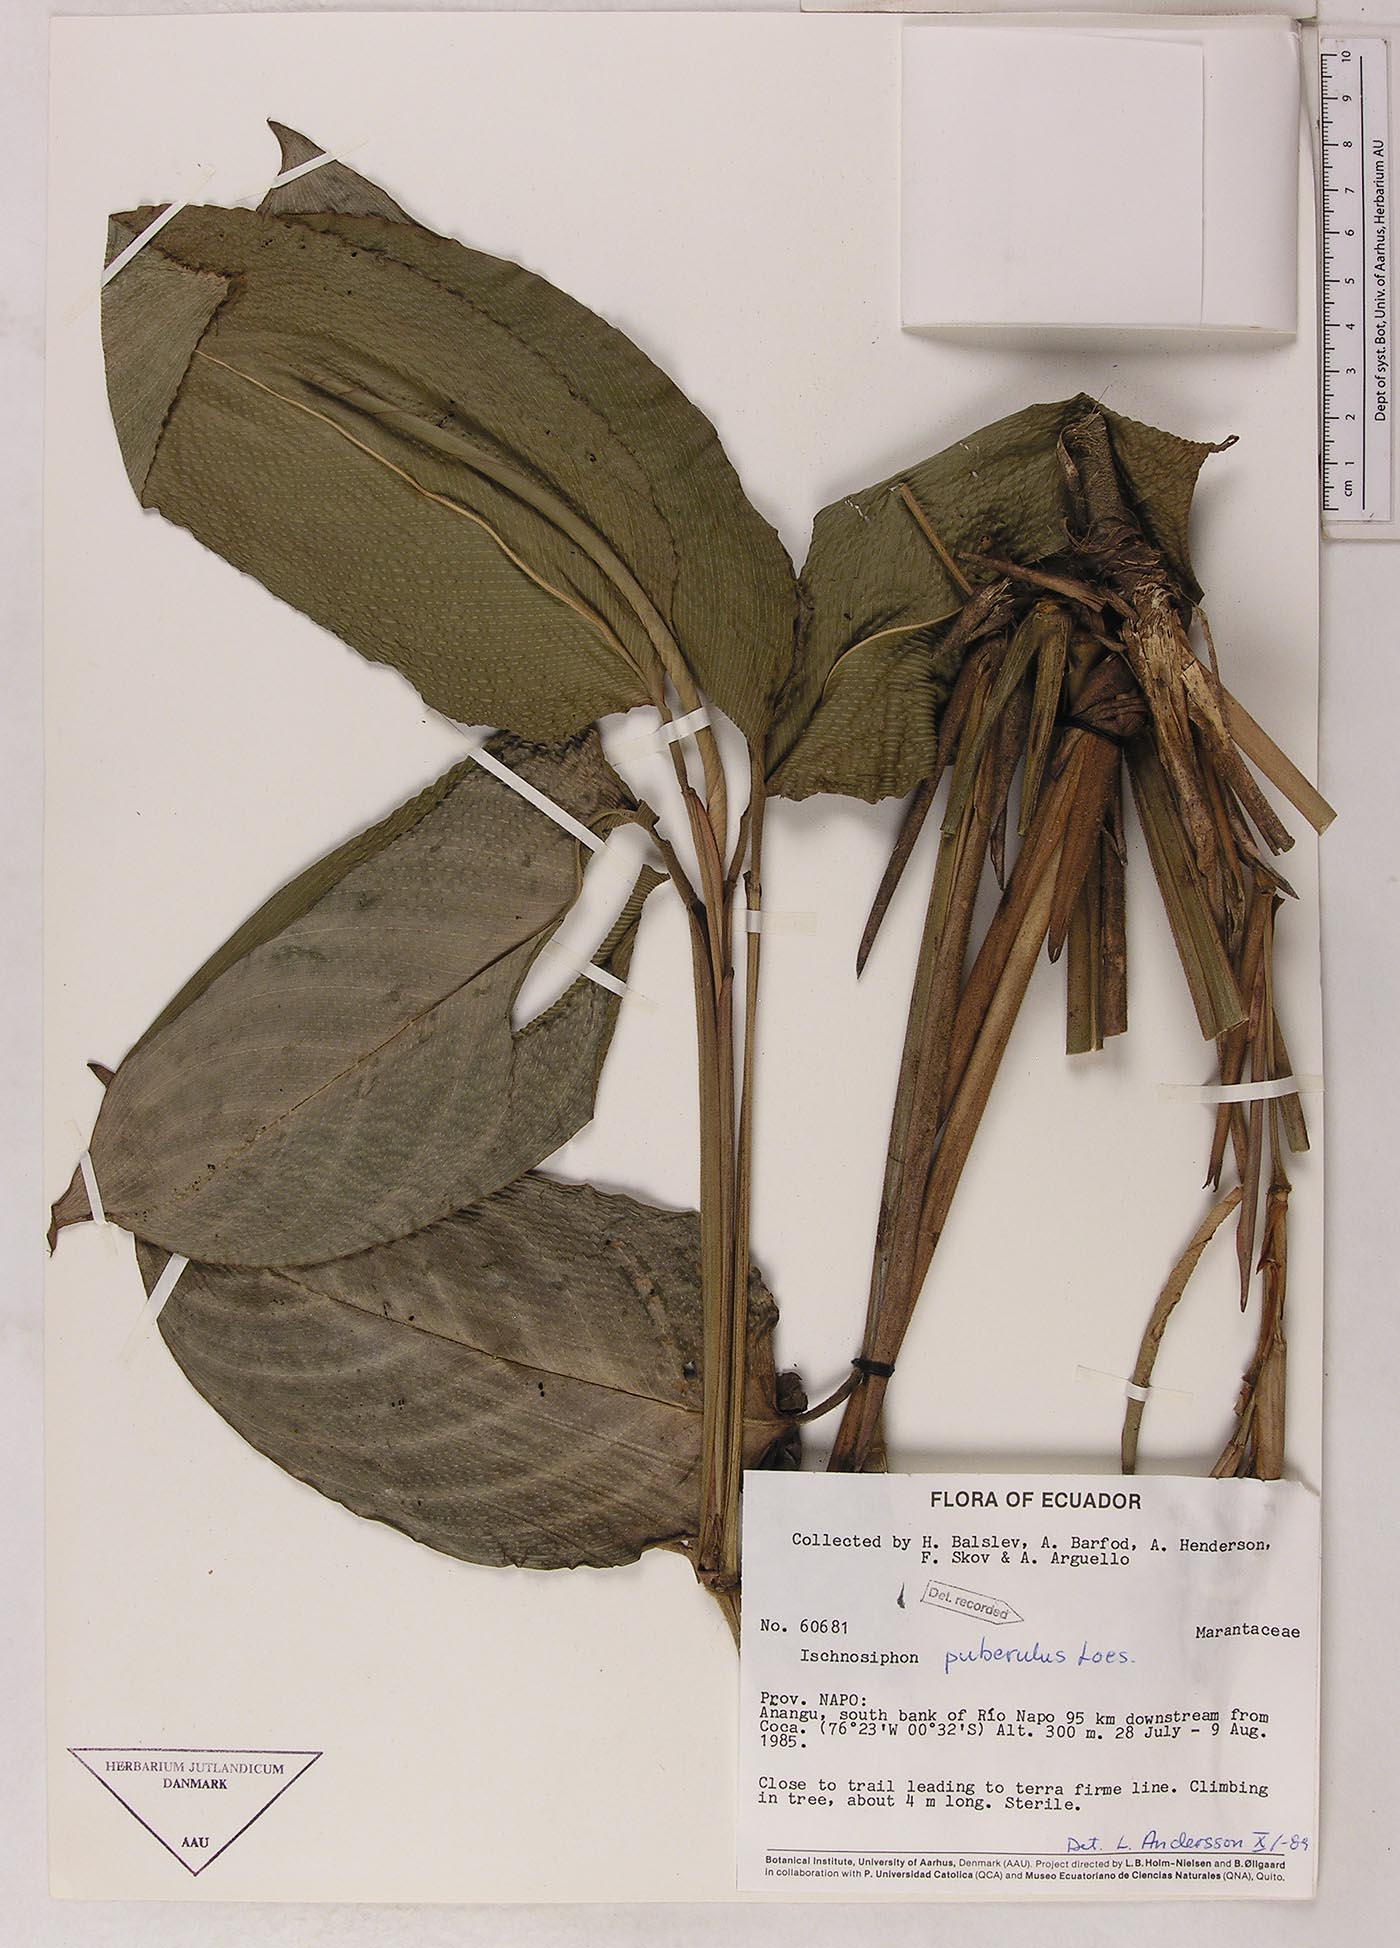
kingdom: Plantae
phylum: Tracheophyta
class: Liliopsida
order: Zingiberales
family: Marantaceae
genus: Ischnosiphon
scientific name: Ischnosiphon puberulus
